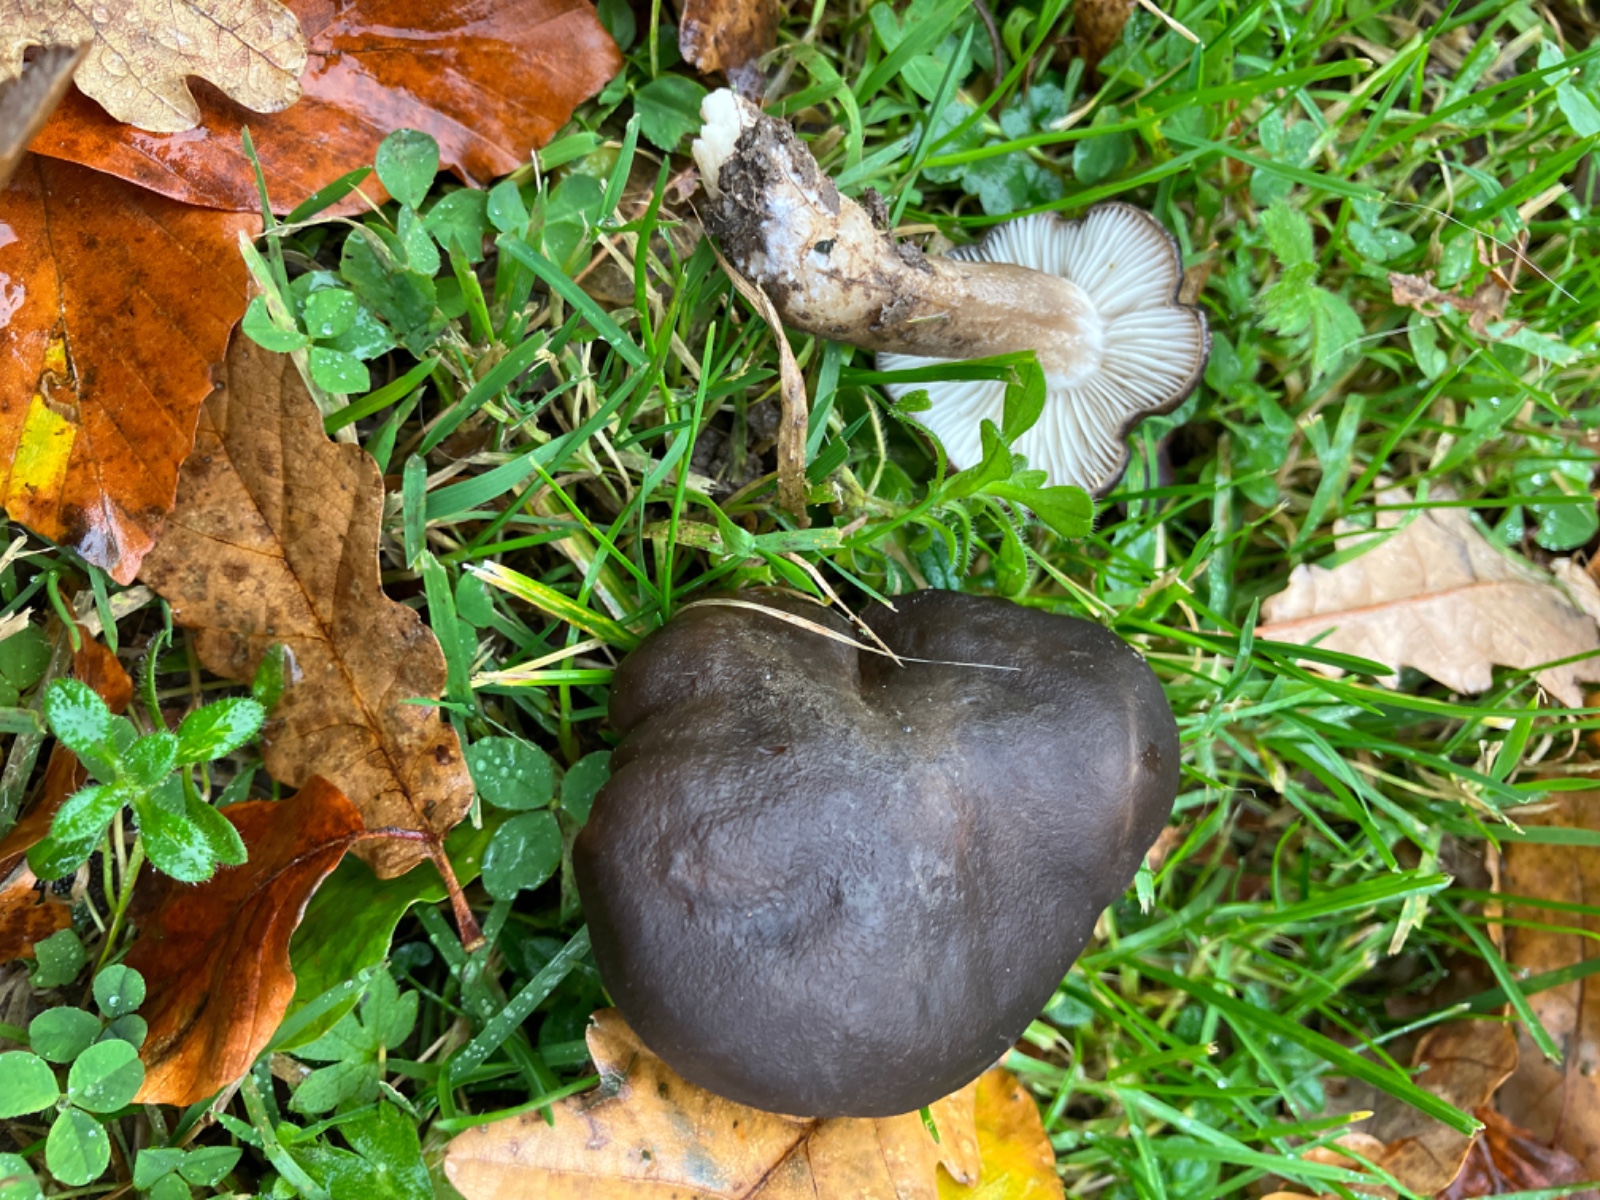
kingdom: Fungi
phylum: Basidiomycota
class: Agaricomycetes
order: Agaricales
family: Lyophyllaceae
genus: Lyophyllum
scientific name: Lyophyllum decastes
